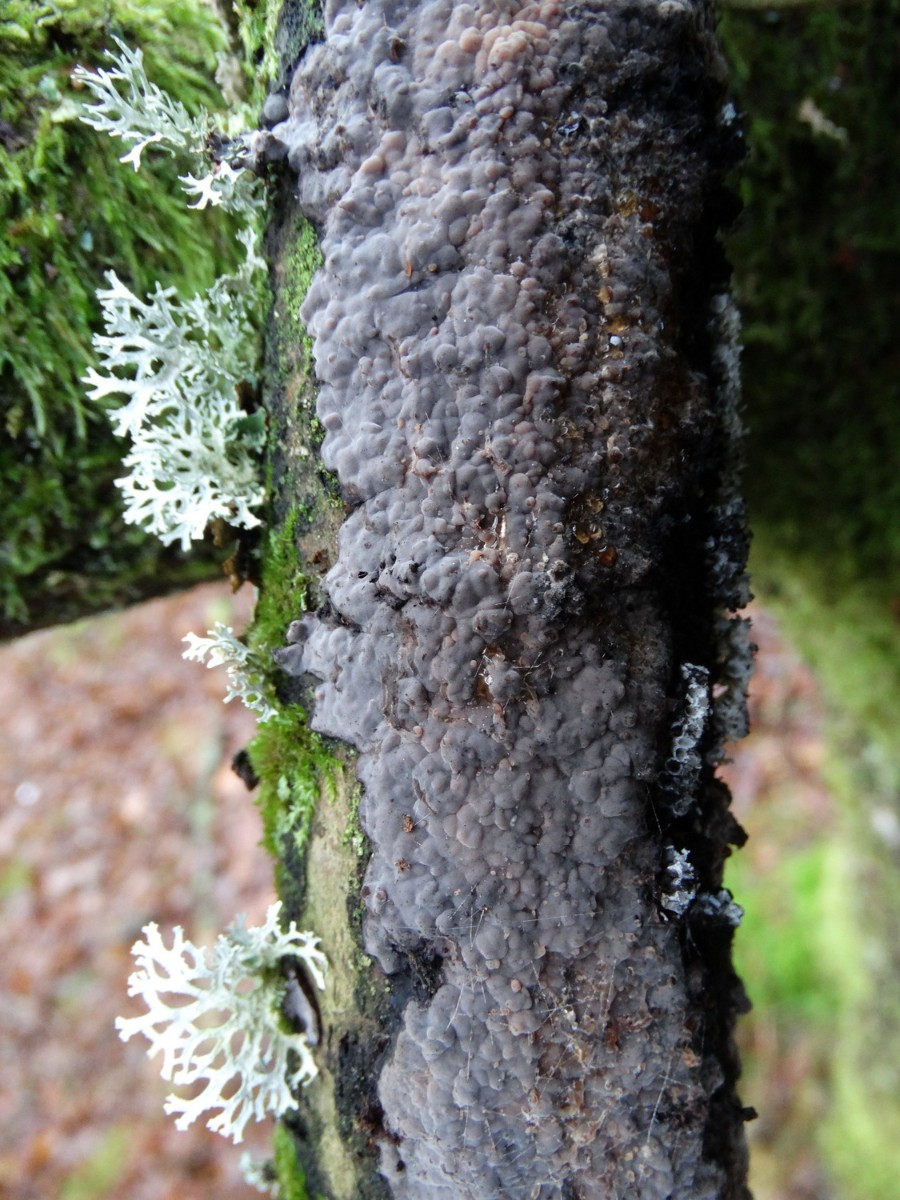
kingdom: Fungi
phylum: Basidiomycota
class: Agaricomycetes
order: Russulales
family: Peniophoraceae
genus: Peniophora
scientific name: Peniophora quercina
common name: ege-voksskind
